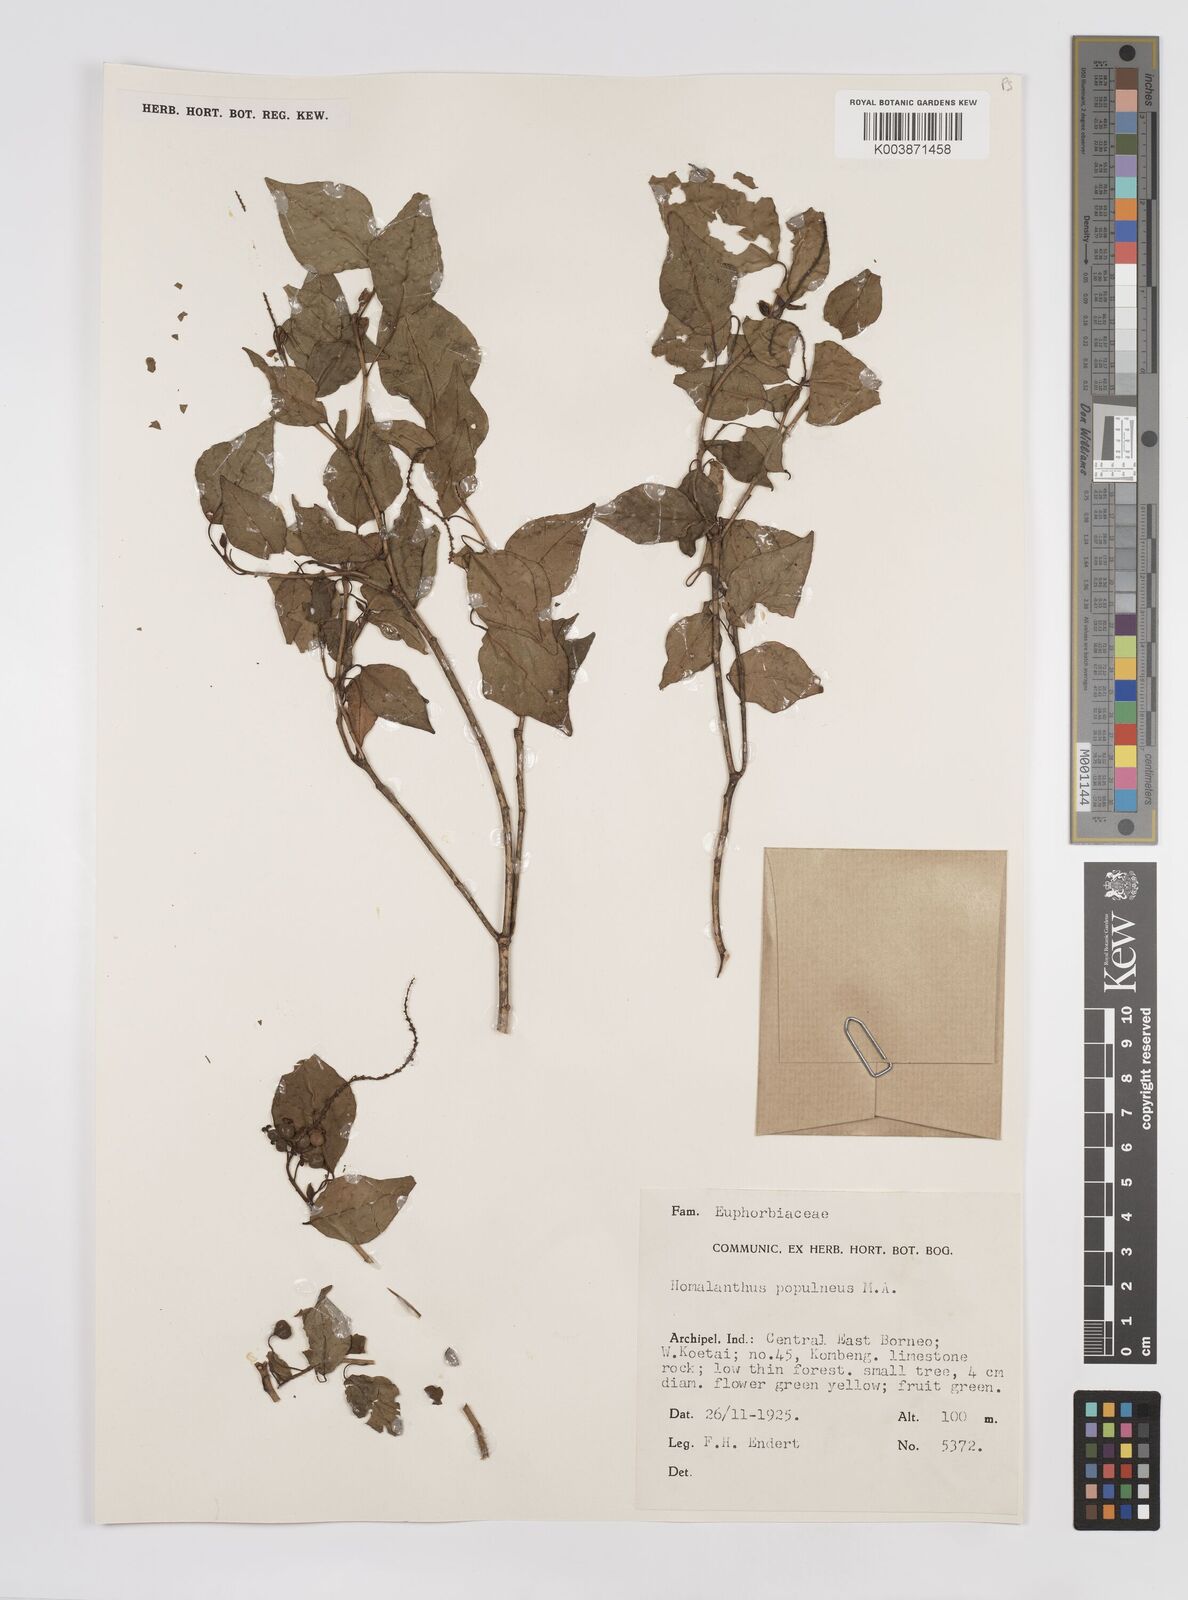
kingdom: Plantae
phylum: Tracheophyta
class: Magnoliopsida
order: Malpighiales
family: Euphorbiaceae
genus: Homalanthus
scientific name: Homalanthus populneus
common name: Spurge
